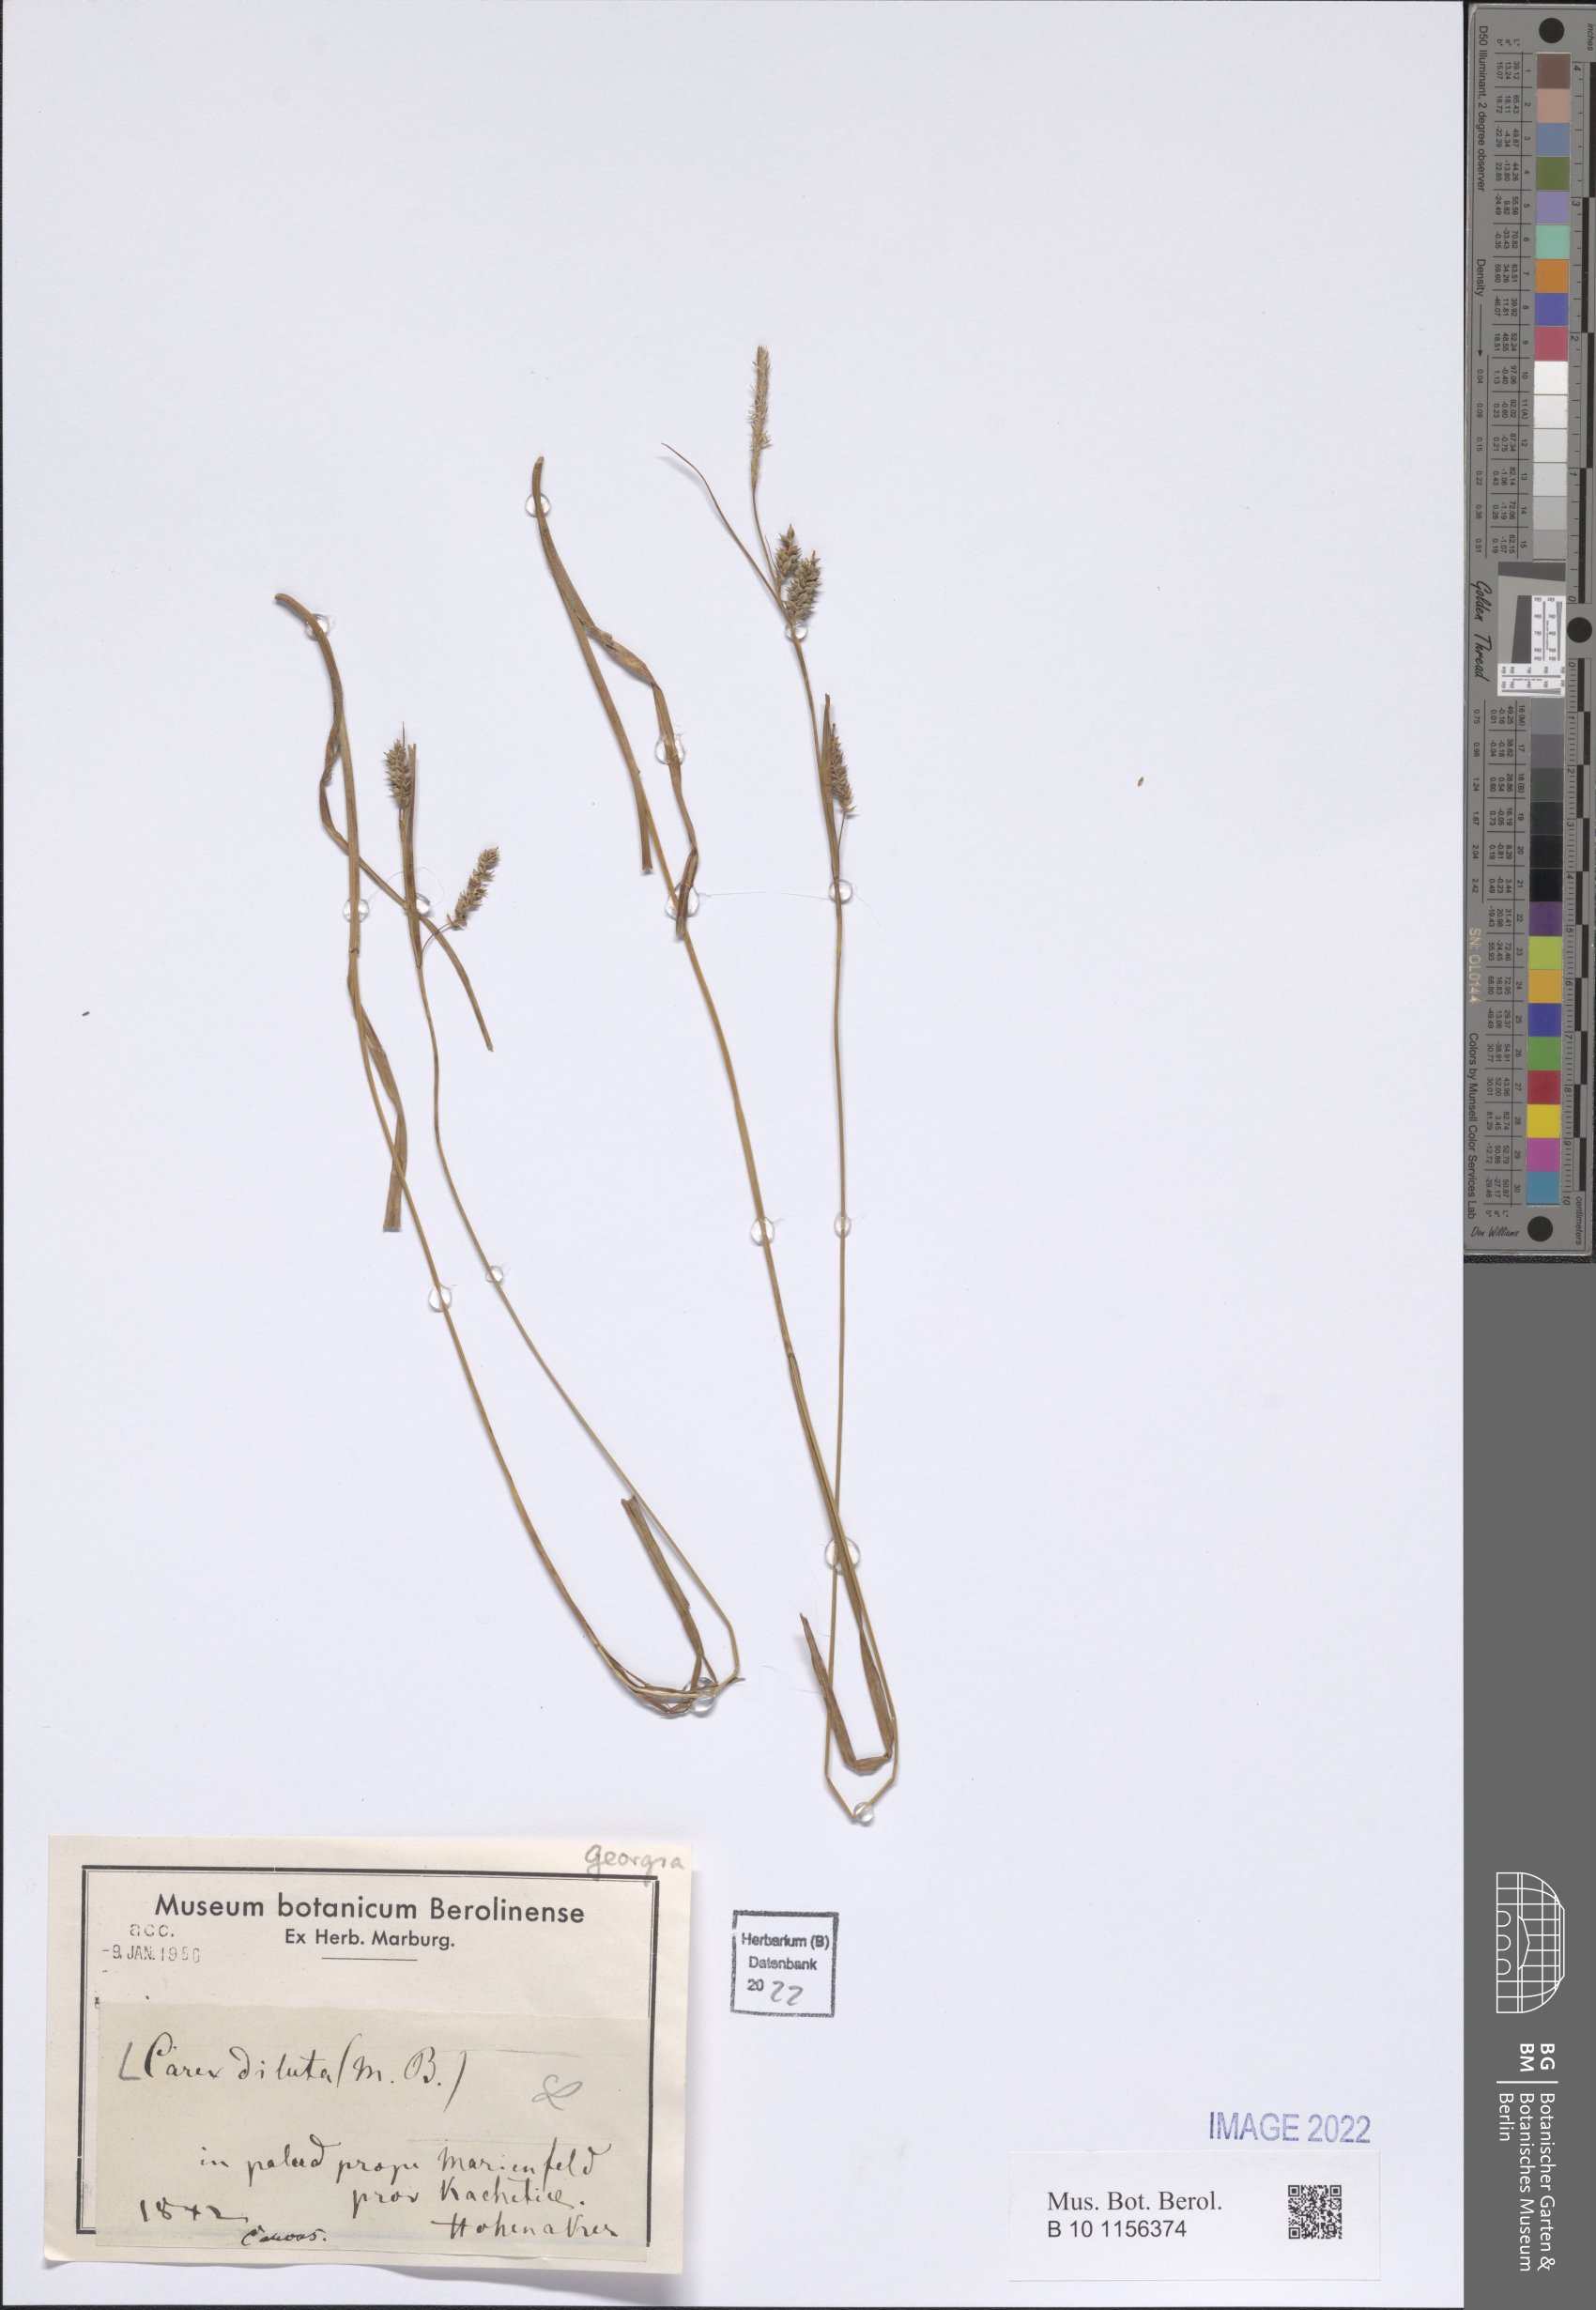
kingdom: Plantae
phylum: Tracheophyta
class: Liliopsida
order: Poales
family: Cyperaceae
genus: Carex
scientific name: Carex diluta
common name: Sedge
